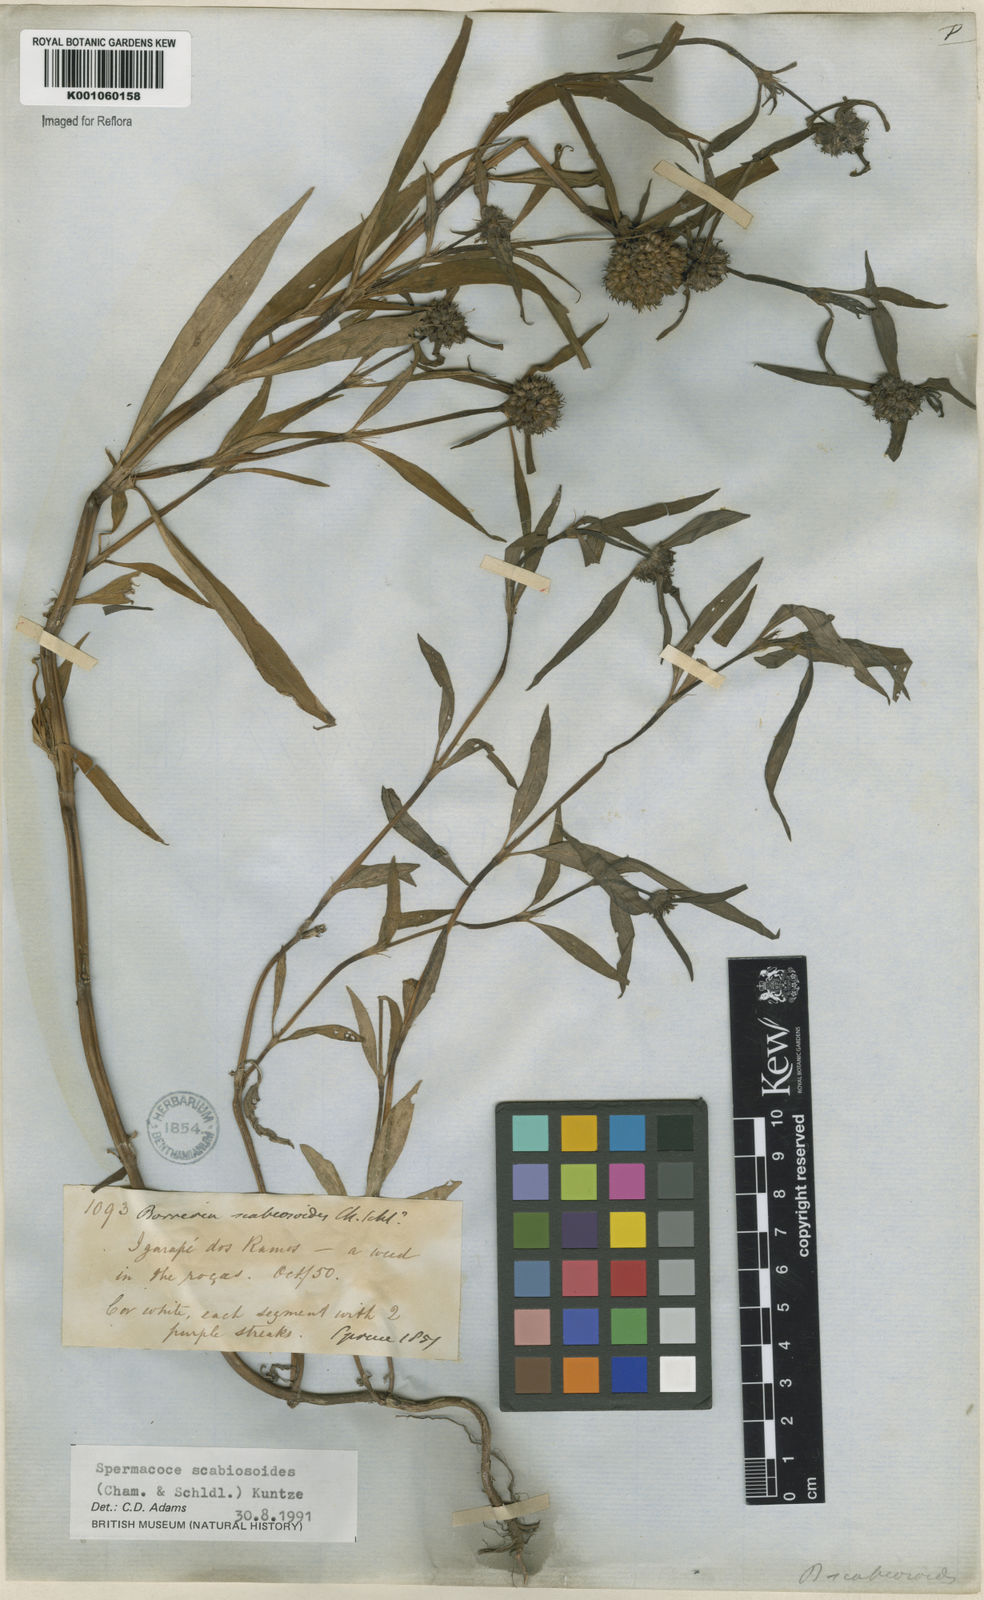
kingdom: Plantae
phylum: Tracheophyta
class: Magnoliopsida
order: Gentianales
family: Rubiaceae
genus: Spermacoce
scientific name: Spermacoce scabiosoides
